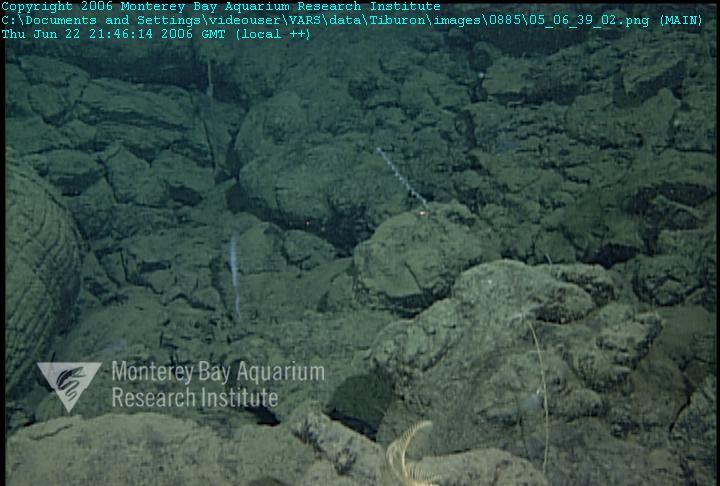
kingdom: Animalia
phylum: Porifera
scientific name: Porifera
